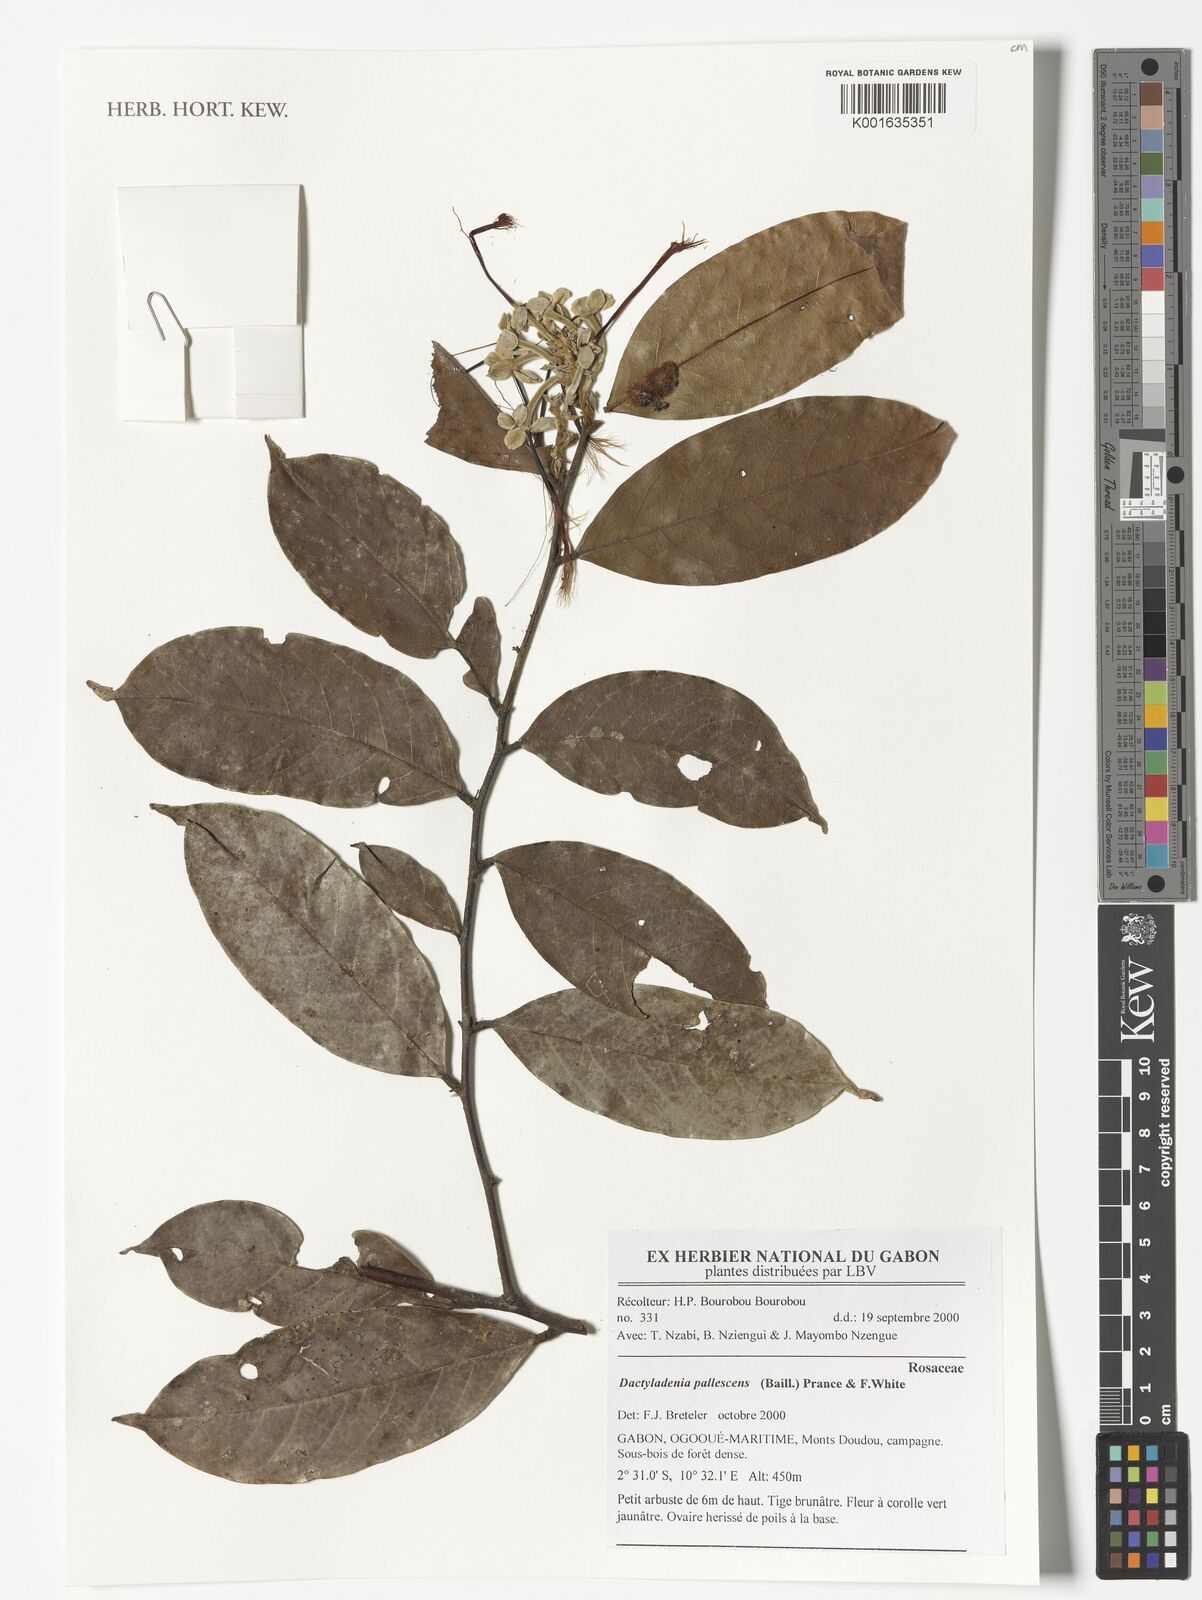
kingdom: Plantae
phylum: Tracheophyta
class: Magnoliopsida
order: Malpighiales
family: Chrysobalanaceae
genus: Dactyladenia
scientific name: Dactyladenia pallescens
